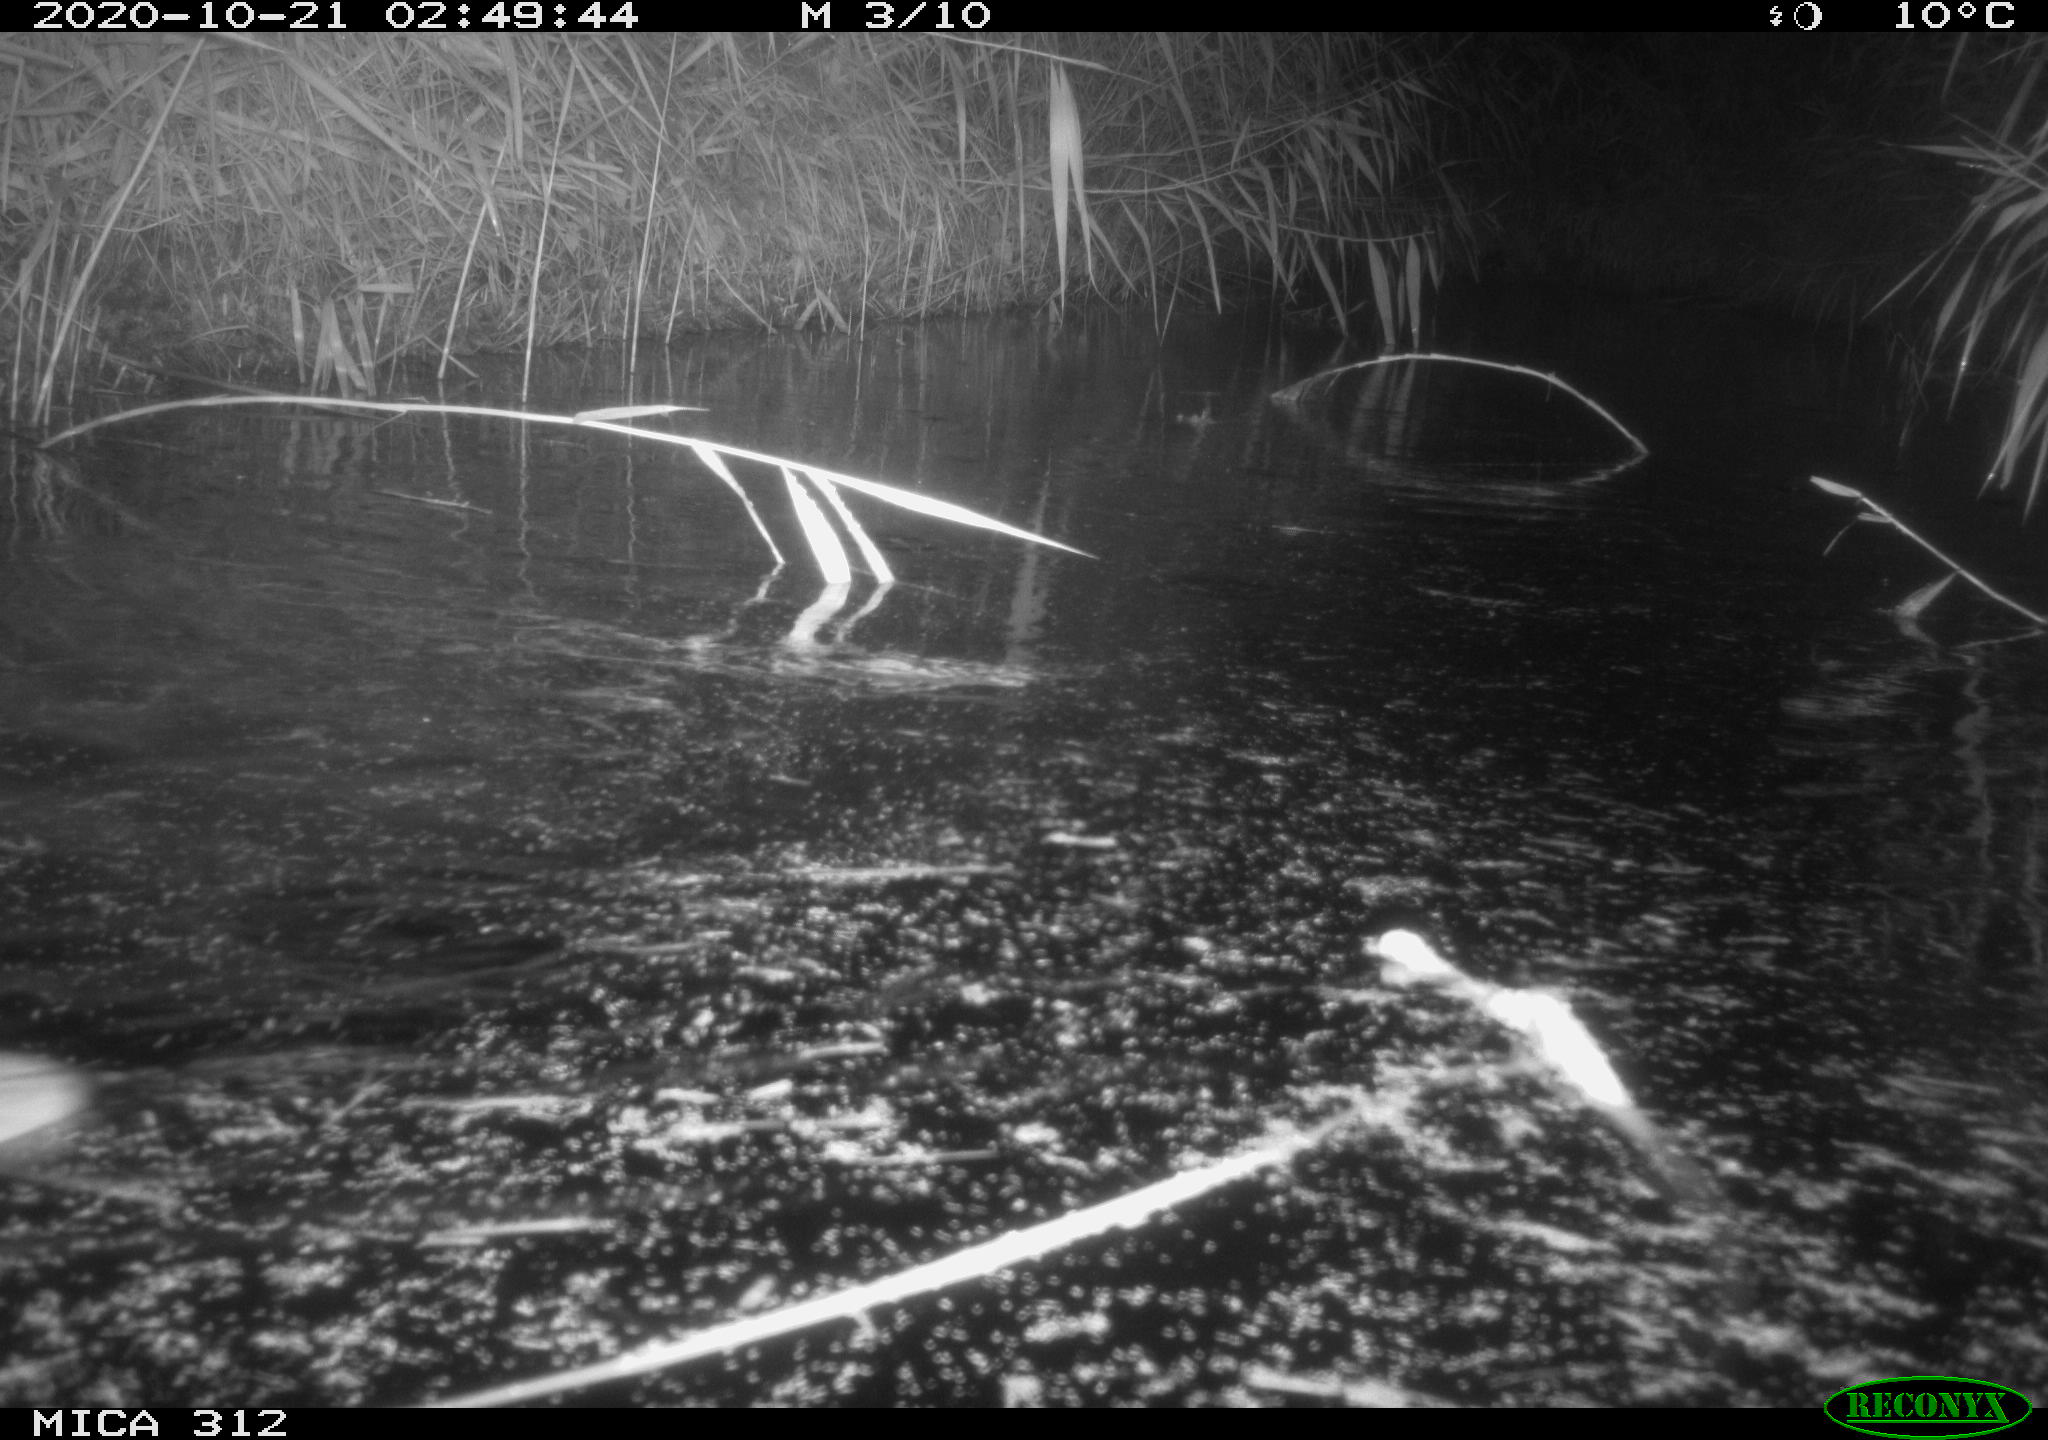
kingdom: Animalia
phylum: Chordata
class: Mammalia
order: Rodentia
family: Muridae
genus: Rattus
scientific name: Rattus norvegicus
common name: Brown rat
